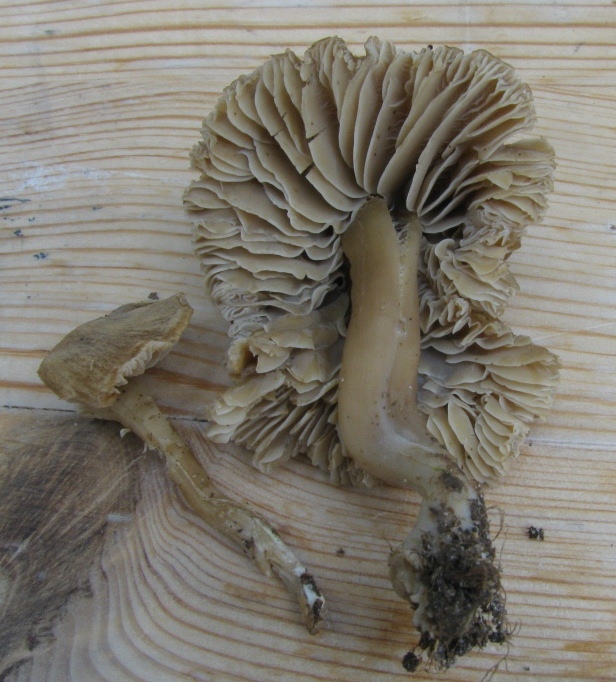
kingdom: Fungi
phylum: Basidiomycota
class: Agaricomycetes
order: Agaricales
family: Clavariaceae
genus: Camarophyllopsis
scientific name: Camarophyllopsis schulzeri
